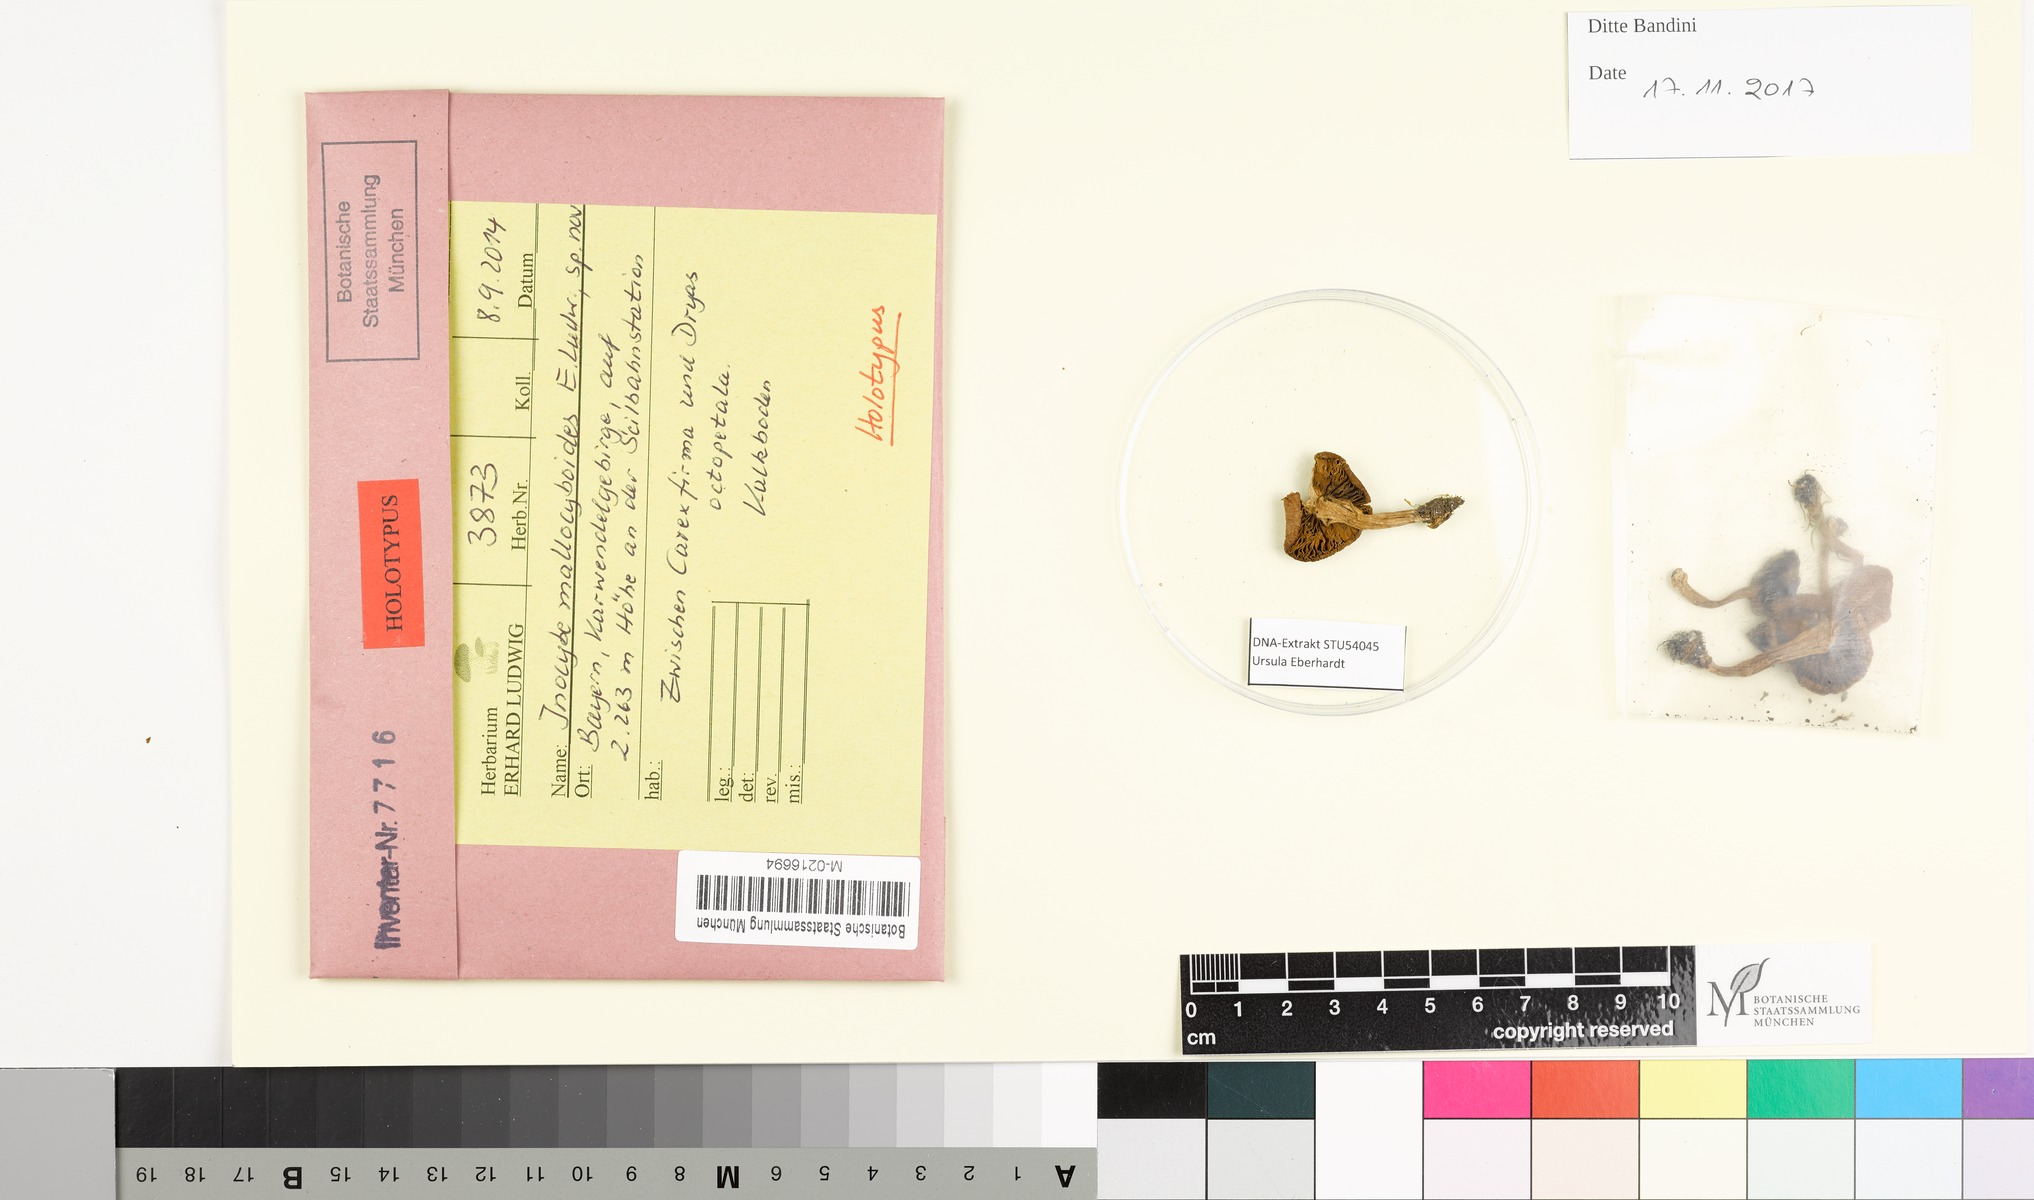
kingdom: Fungi
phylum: Basidiomycota
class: Agaricomycetes
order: Agaricales
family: Inocybaceae
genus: Inocybe
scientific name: Inocybe mallocyboides
